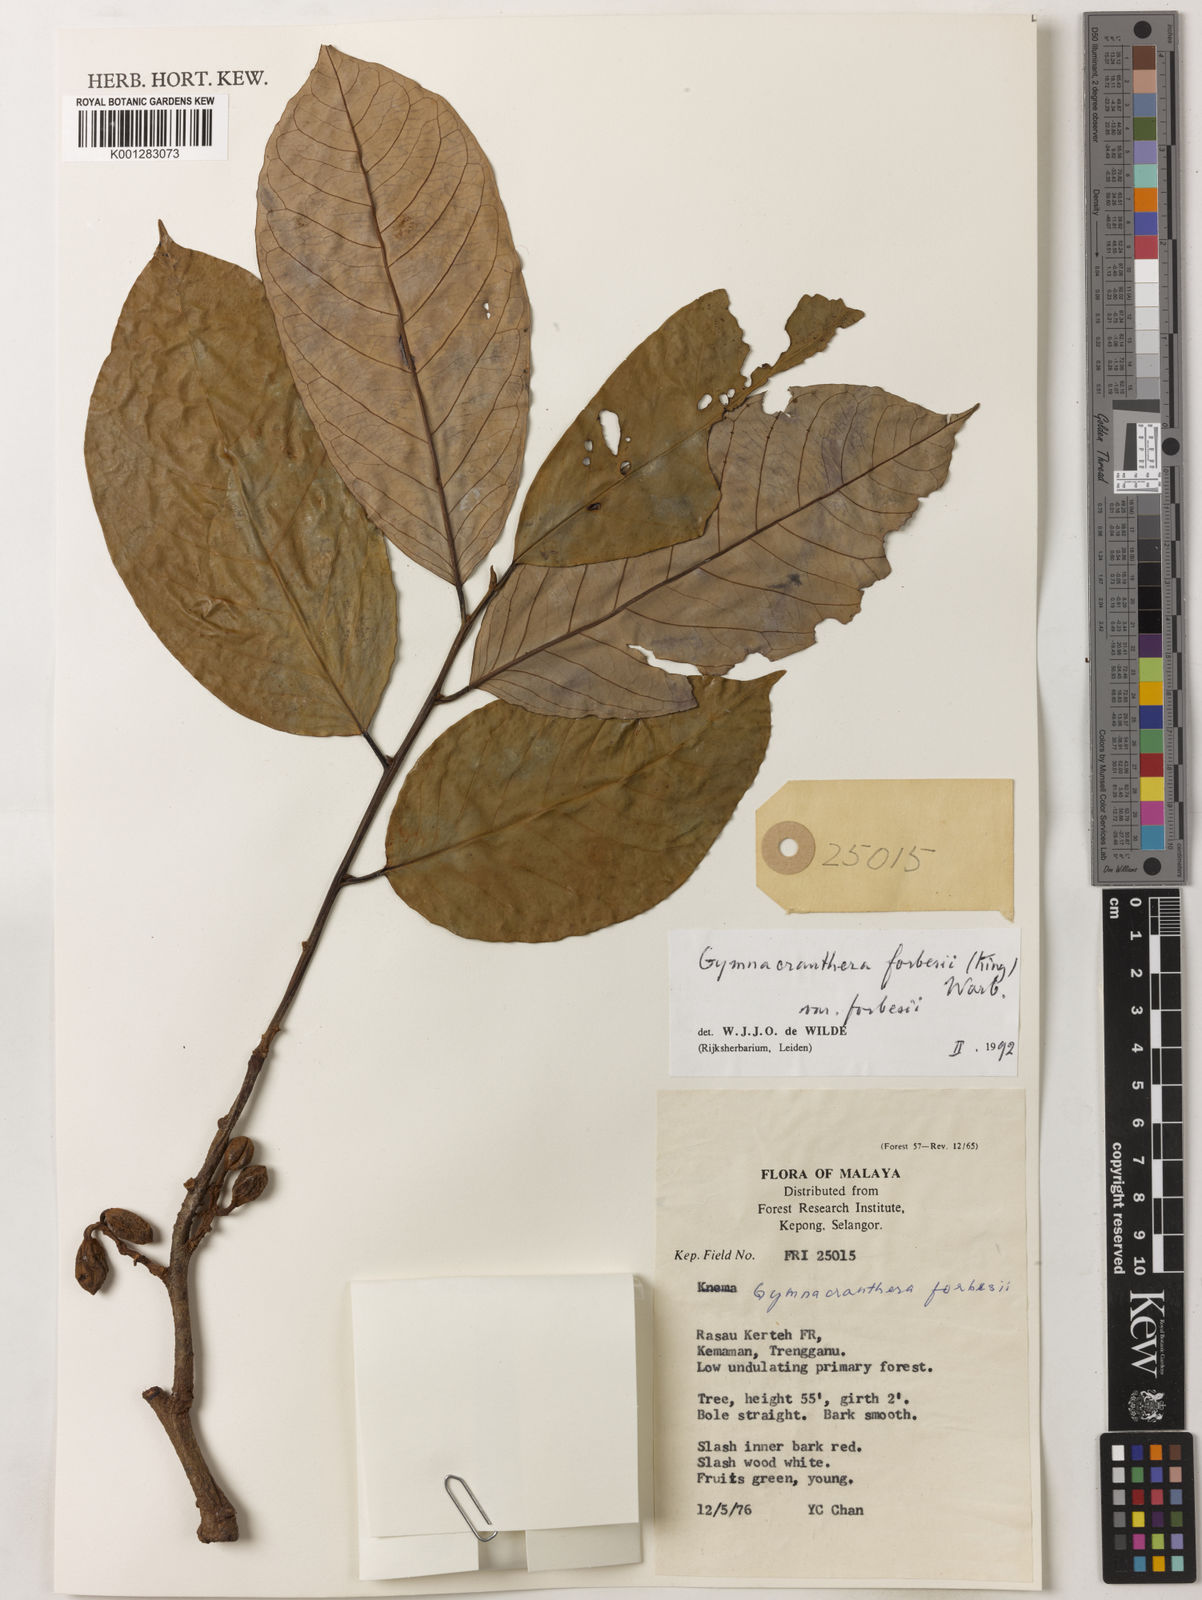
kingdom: Plantae
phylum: Tracheophyta
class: Magnoliopsida
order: Magnoliales
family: Myristicaceae
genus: Gymnacranthera
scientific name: Gymnacranthera forbesii
